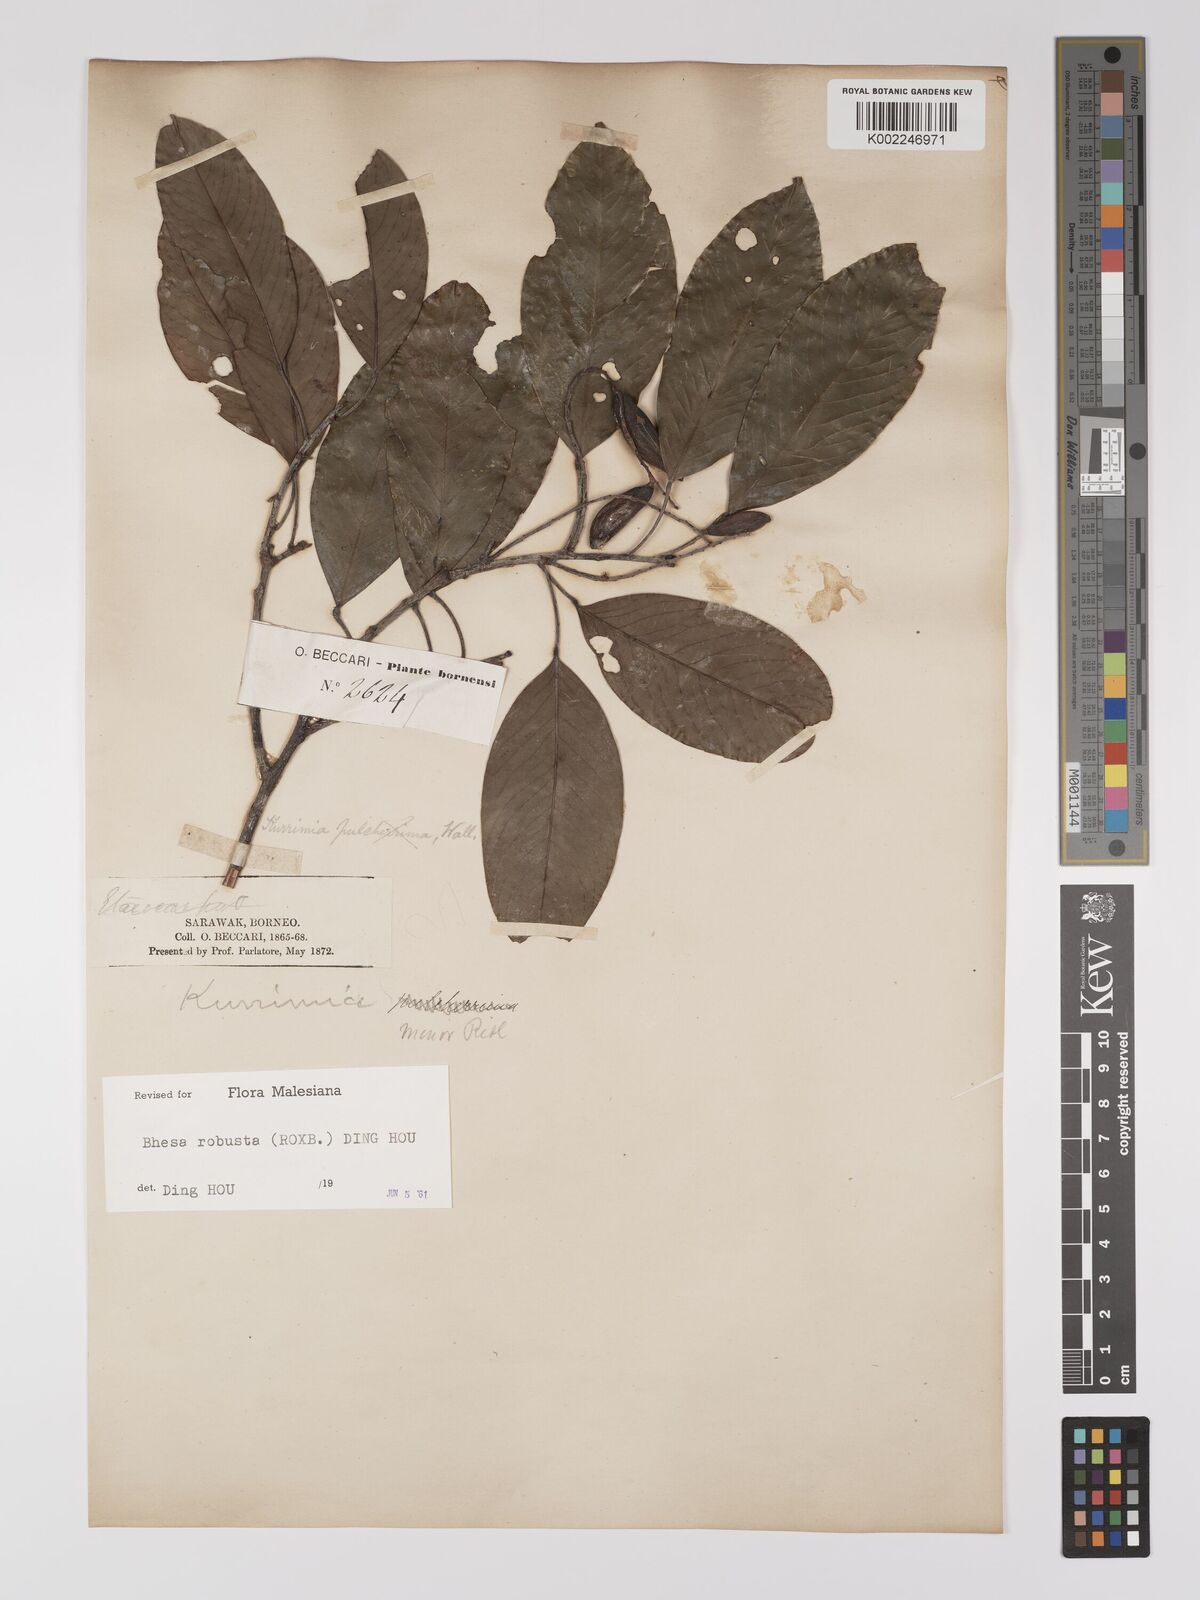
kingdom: Plantae
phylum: Tracheophyta
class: Magnoliopsida
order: Malpighiales
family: Centroplacaceae
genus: Bhesa
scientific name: Bhesa robusta
